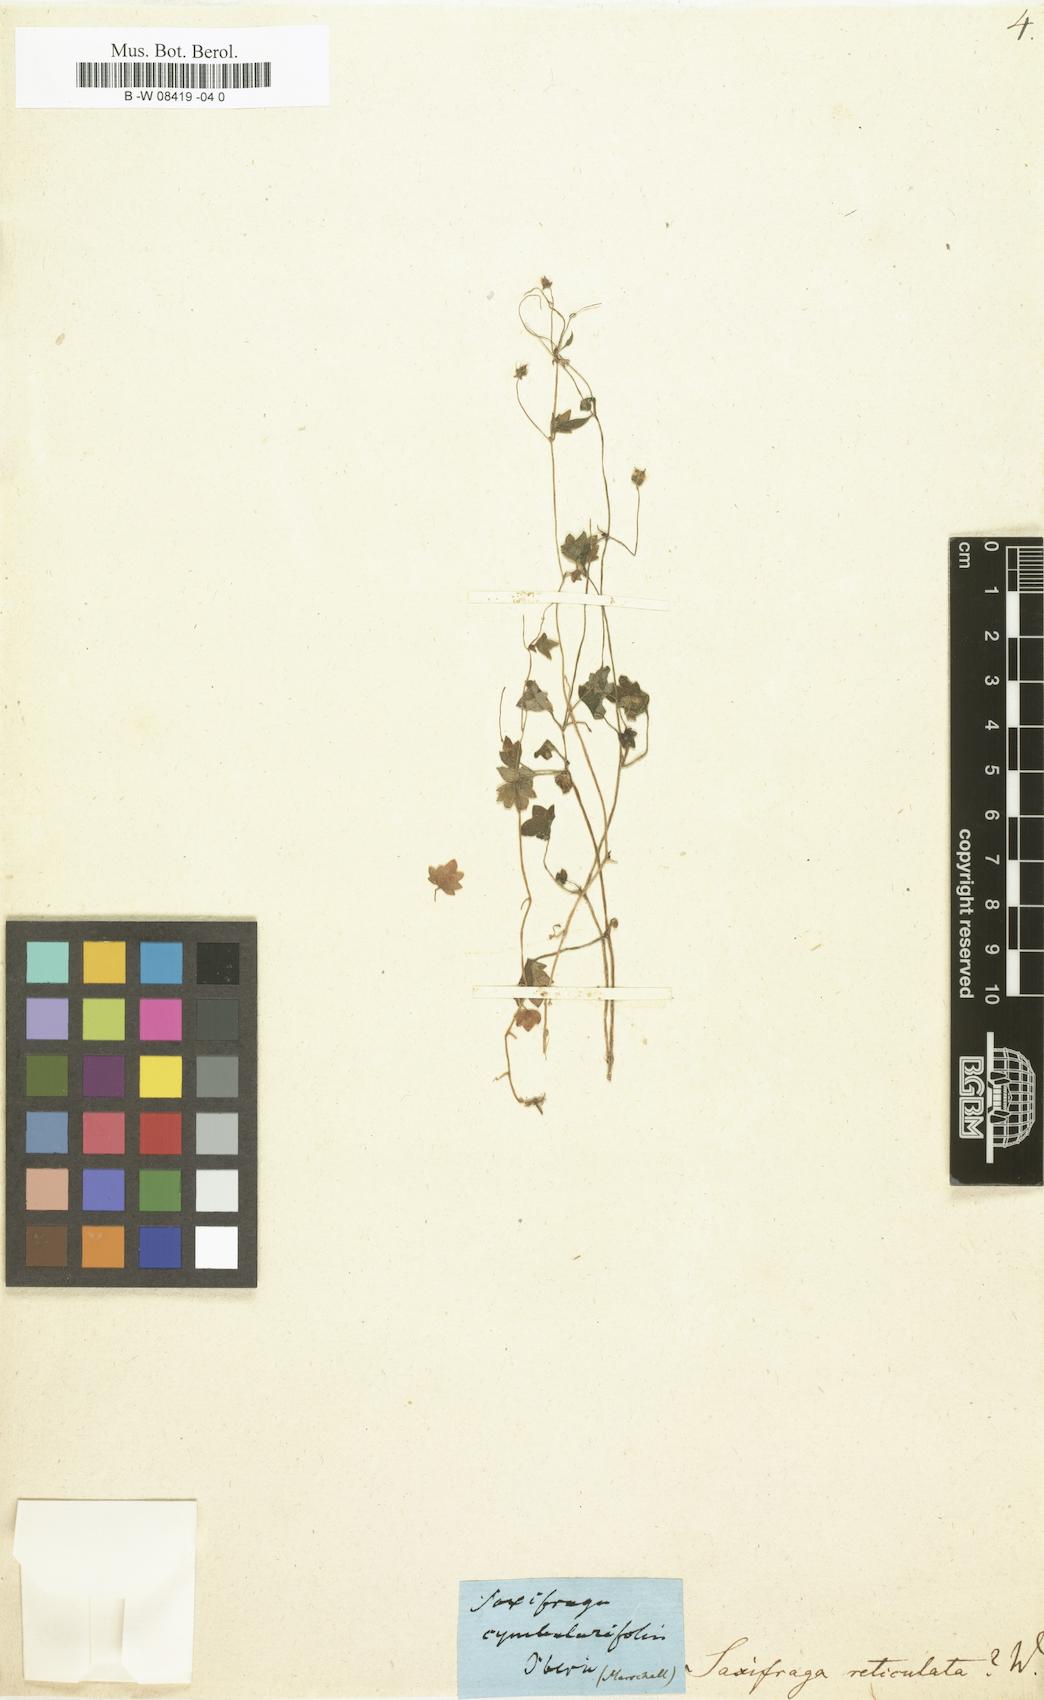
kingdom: Plantae
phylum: Tracheophyta
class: Magnoliopsida
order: Saxifragales
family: Saxifragaceae
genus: Saxifraga
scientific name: Saxifraga
